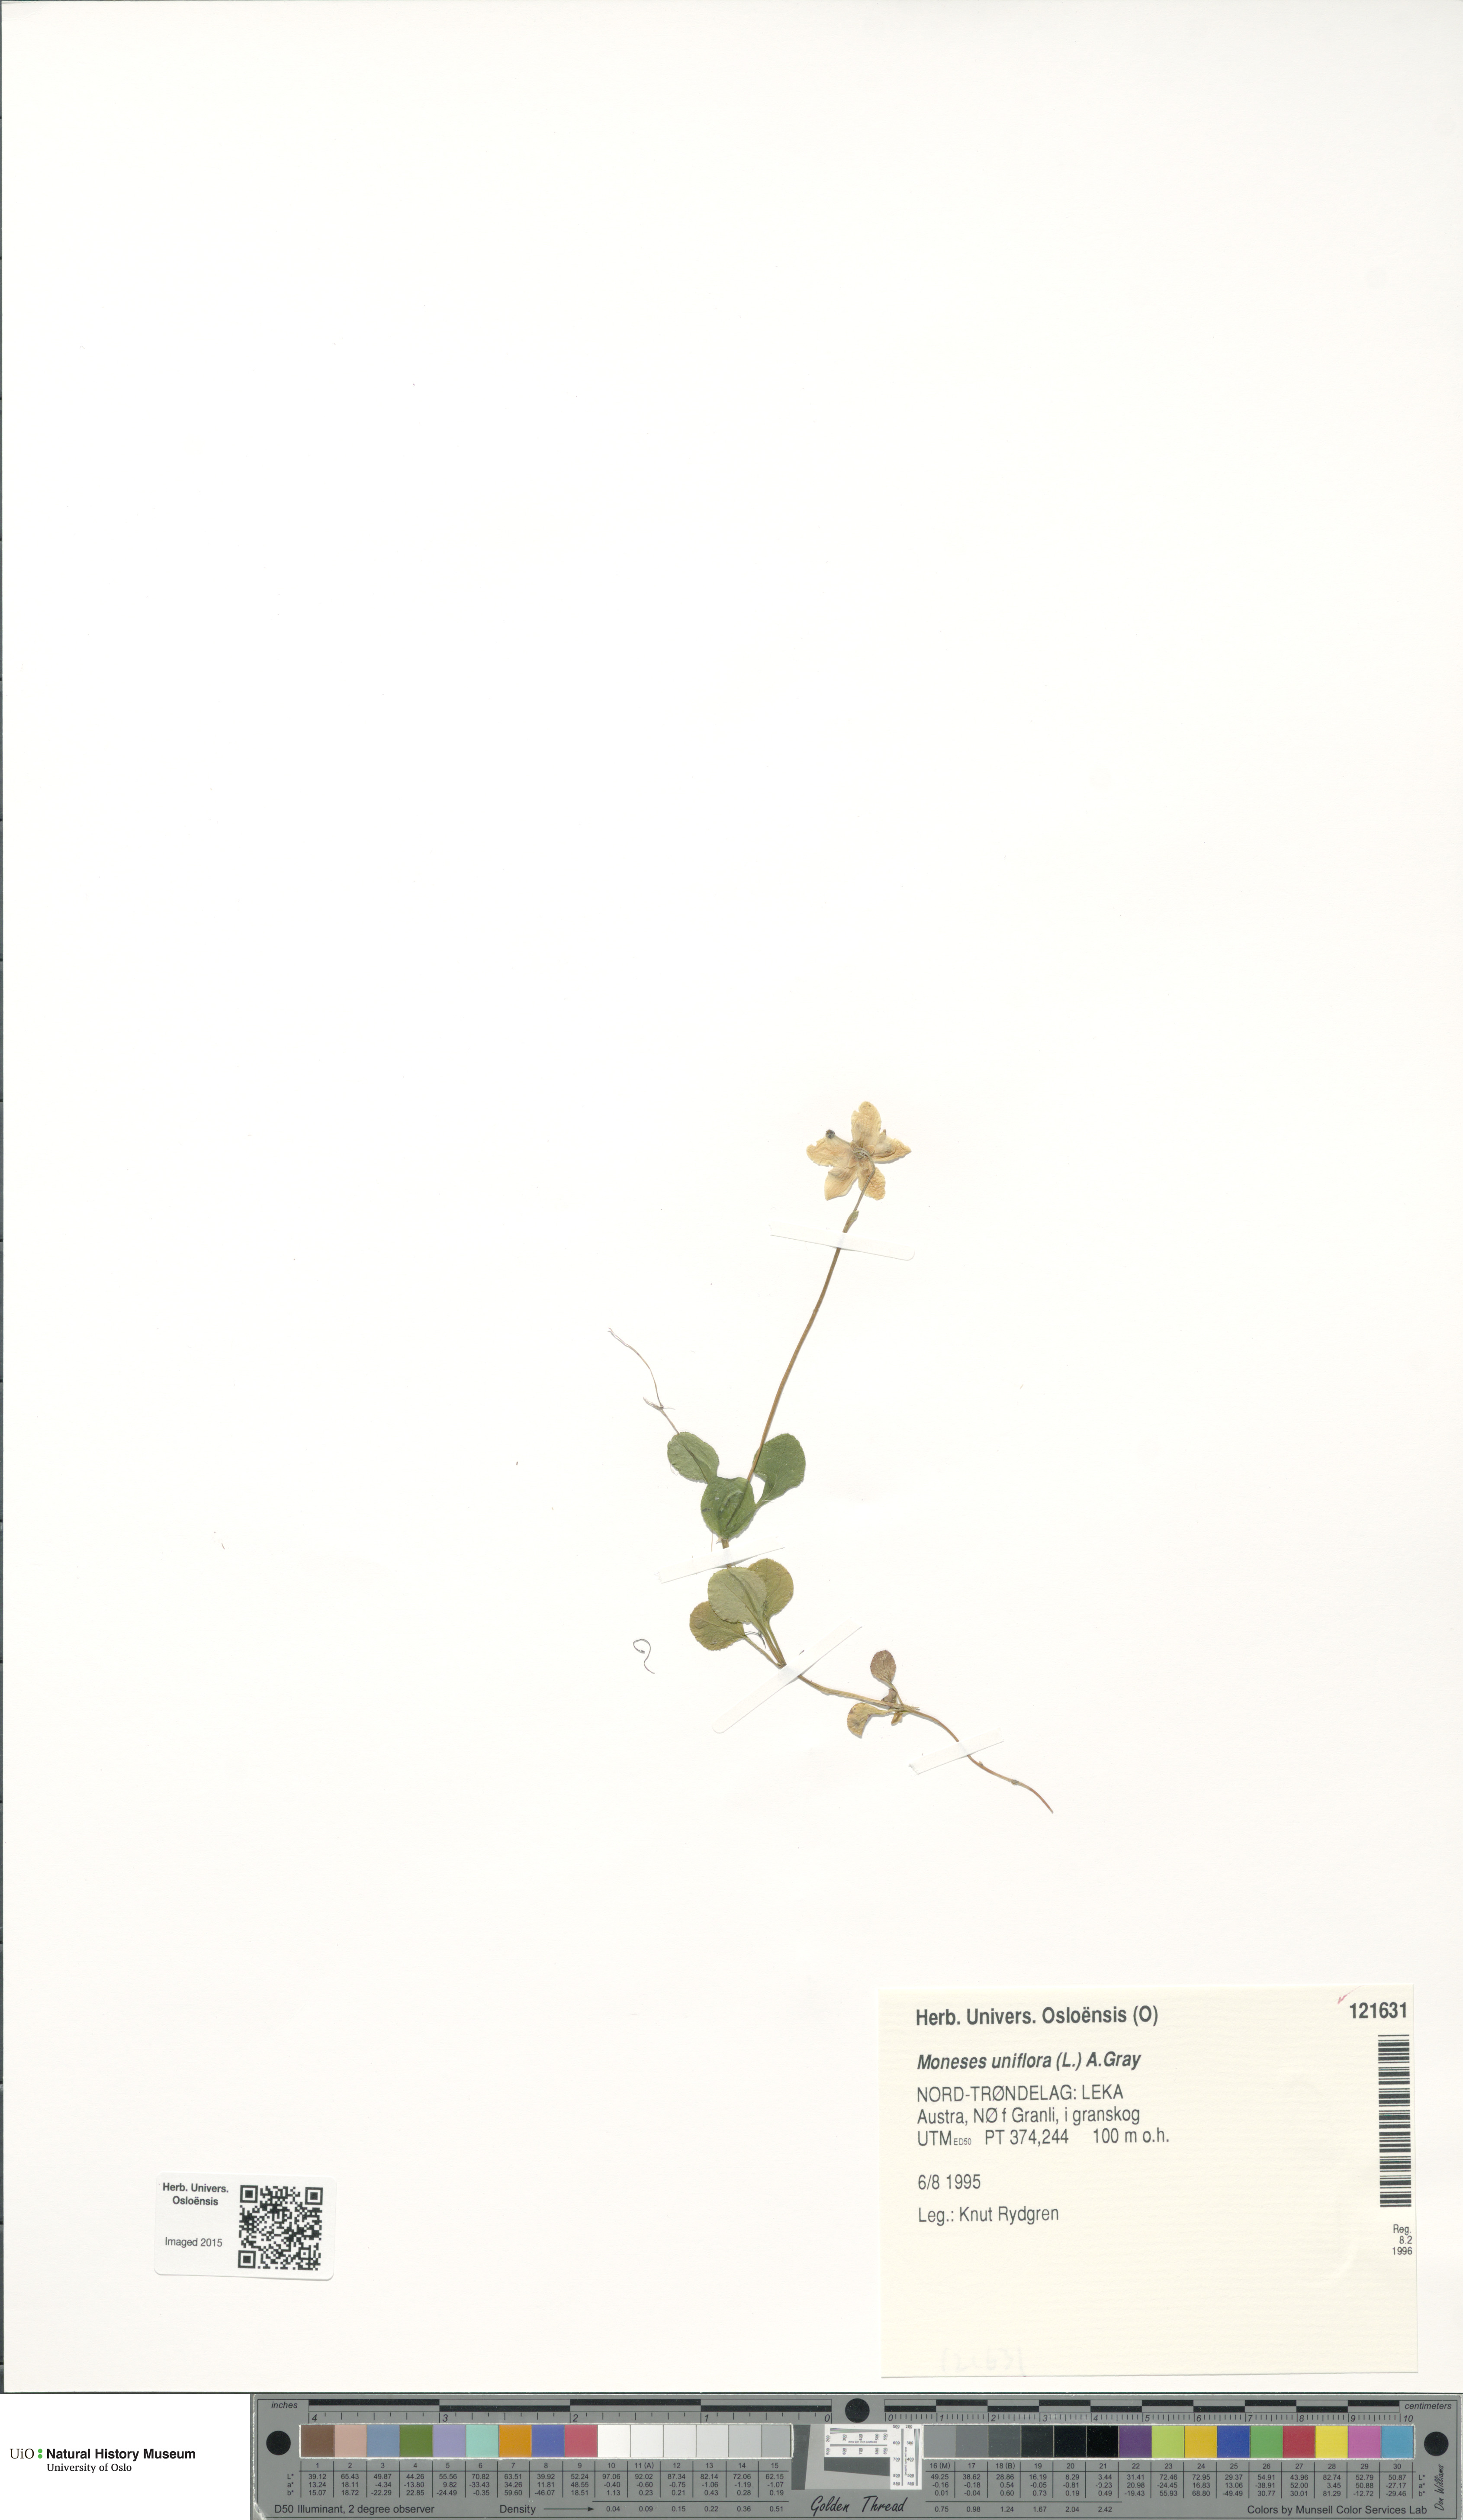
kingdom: Plantae
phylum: Tracheophyta
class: Magnoliopsida
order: Ericales
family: Ericaceae
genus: Moneses
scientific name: Moneses uniflora
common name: One-flowered wintergreen
